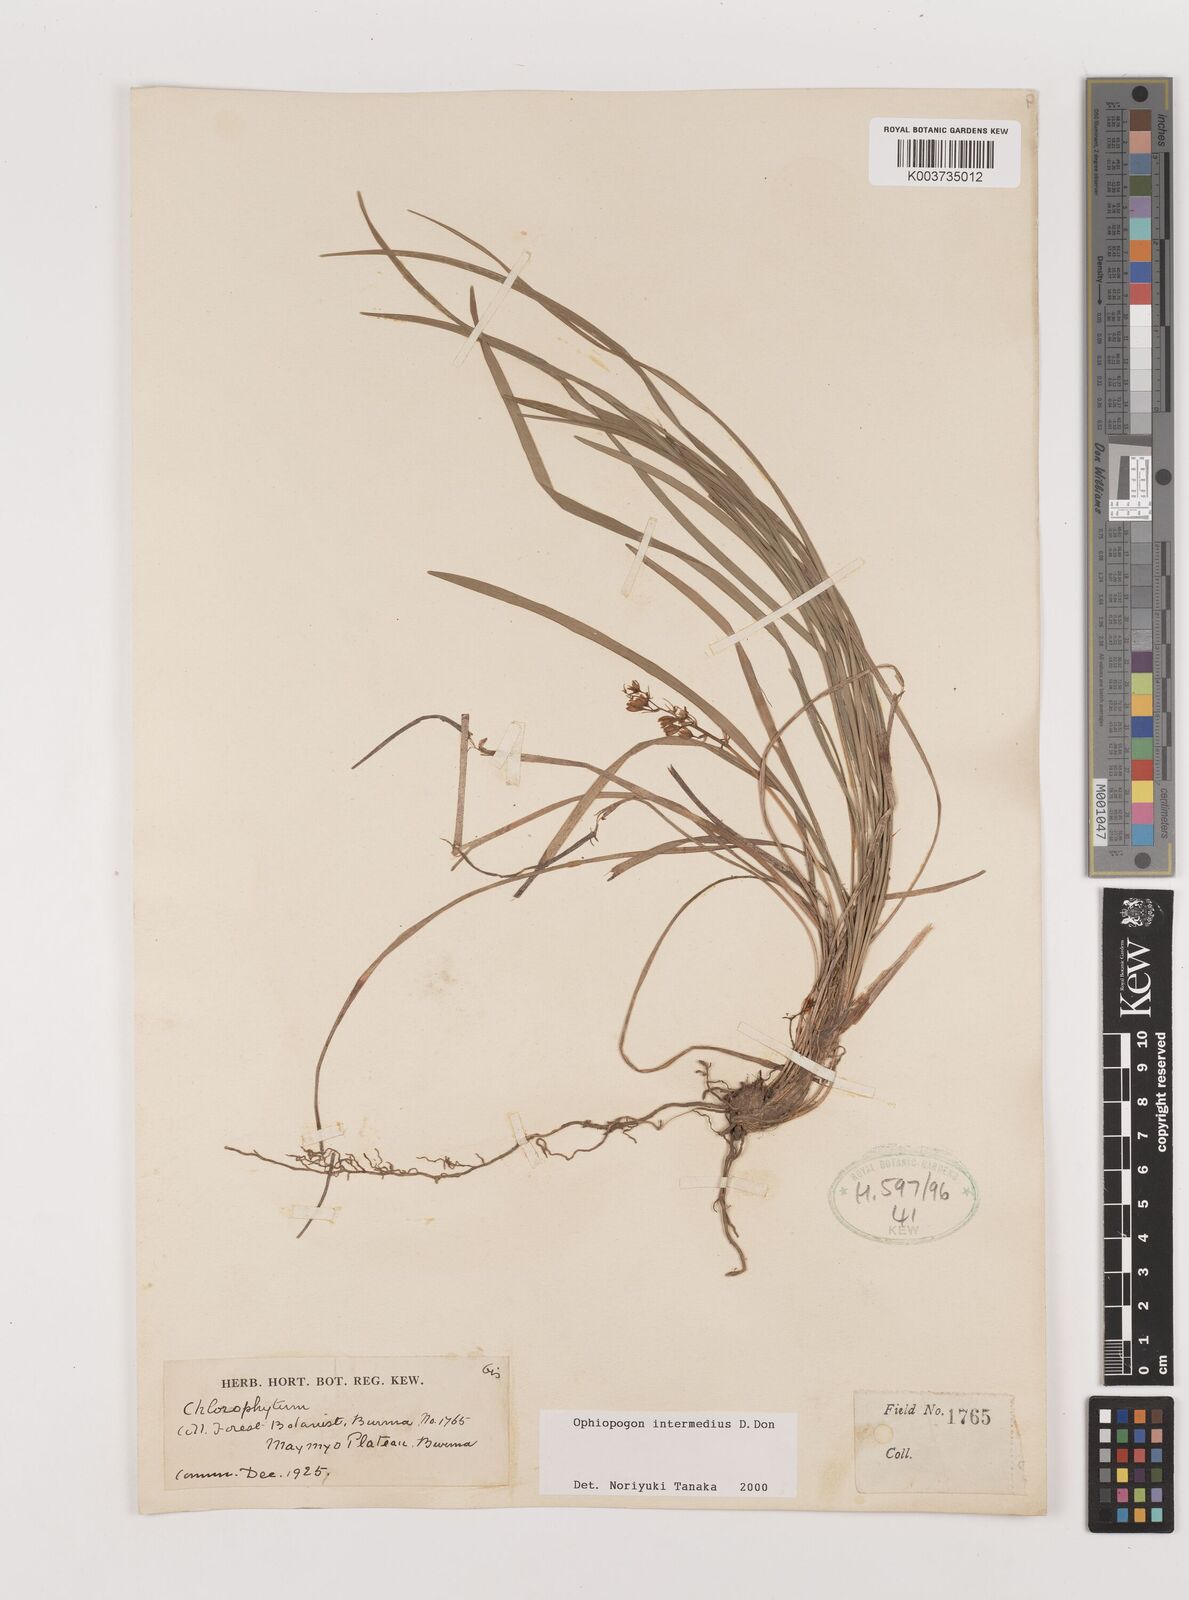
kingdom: Plantae
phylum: Tracheophyta
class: Liliopsida
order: Asparagales
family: Asparagaceae
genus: Ophiopogon
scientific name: Ophiopogon intermedius
